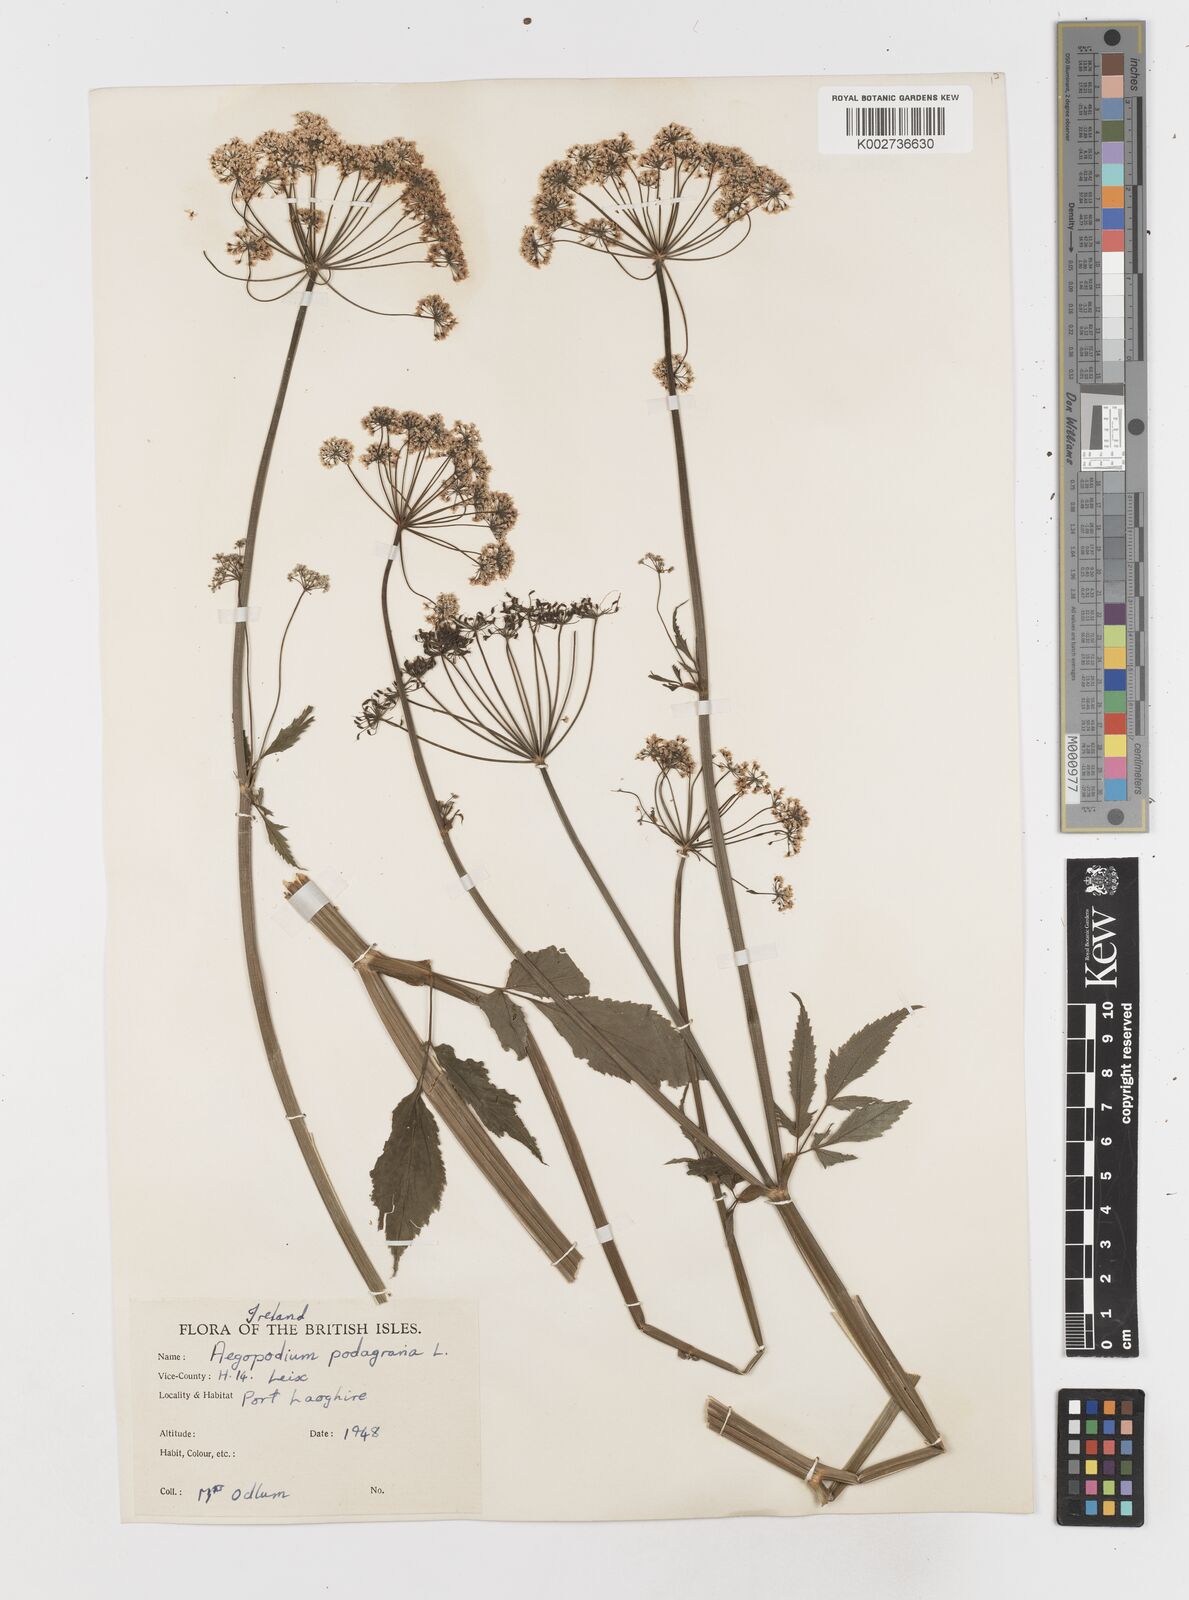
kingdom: Plantae
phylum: Tracheophyta
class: Magnoliopsida
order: Apiales
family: Apiaceae
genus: Aegopodium
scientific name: Aegopodium podagraria
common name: Ground-elder
